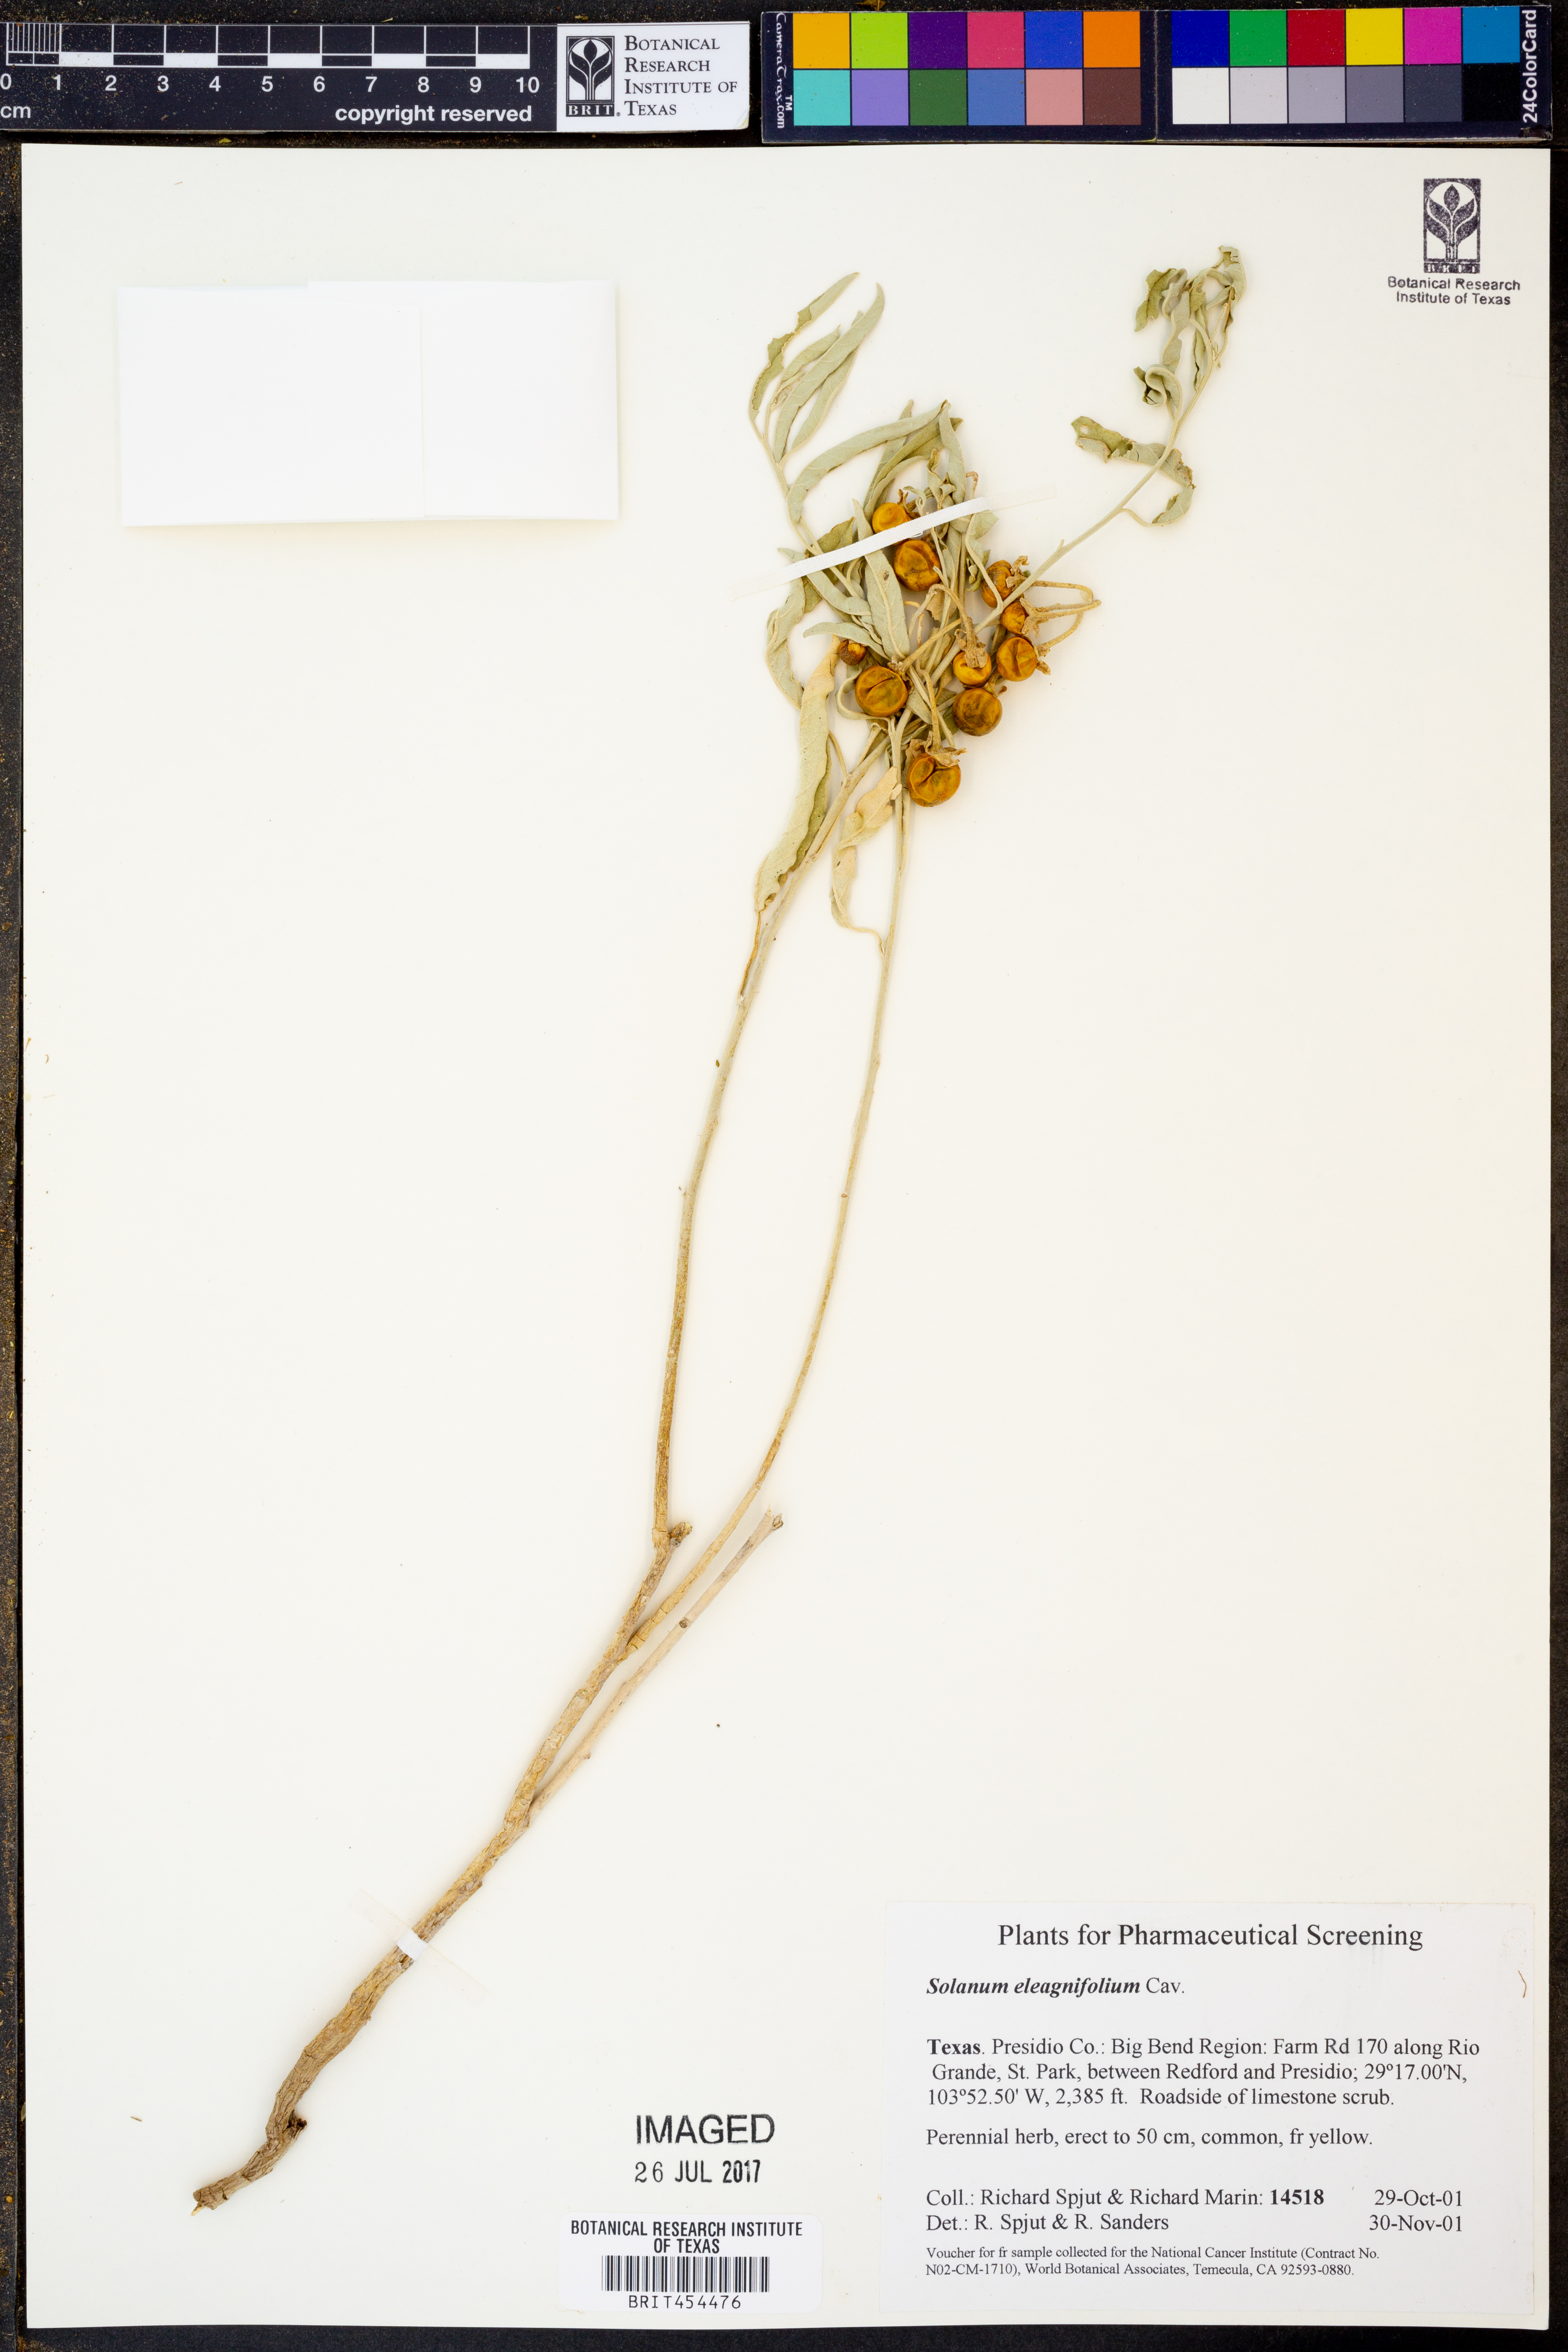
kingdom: Plantae
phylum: Tracheophyta
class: Magnoliopsida
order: Solanales
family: Solanaceae
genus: Solanum
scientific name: Solanum elaeagnifolium
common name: Silverleaf nightshade
